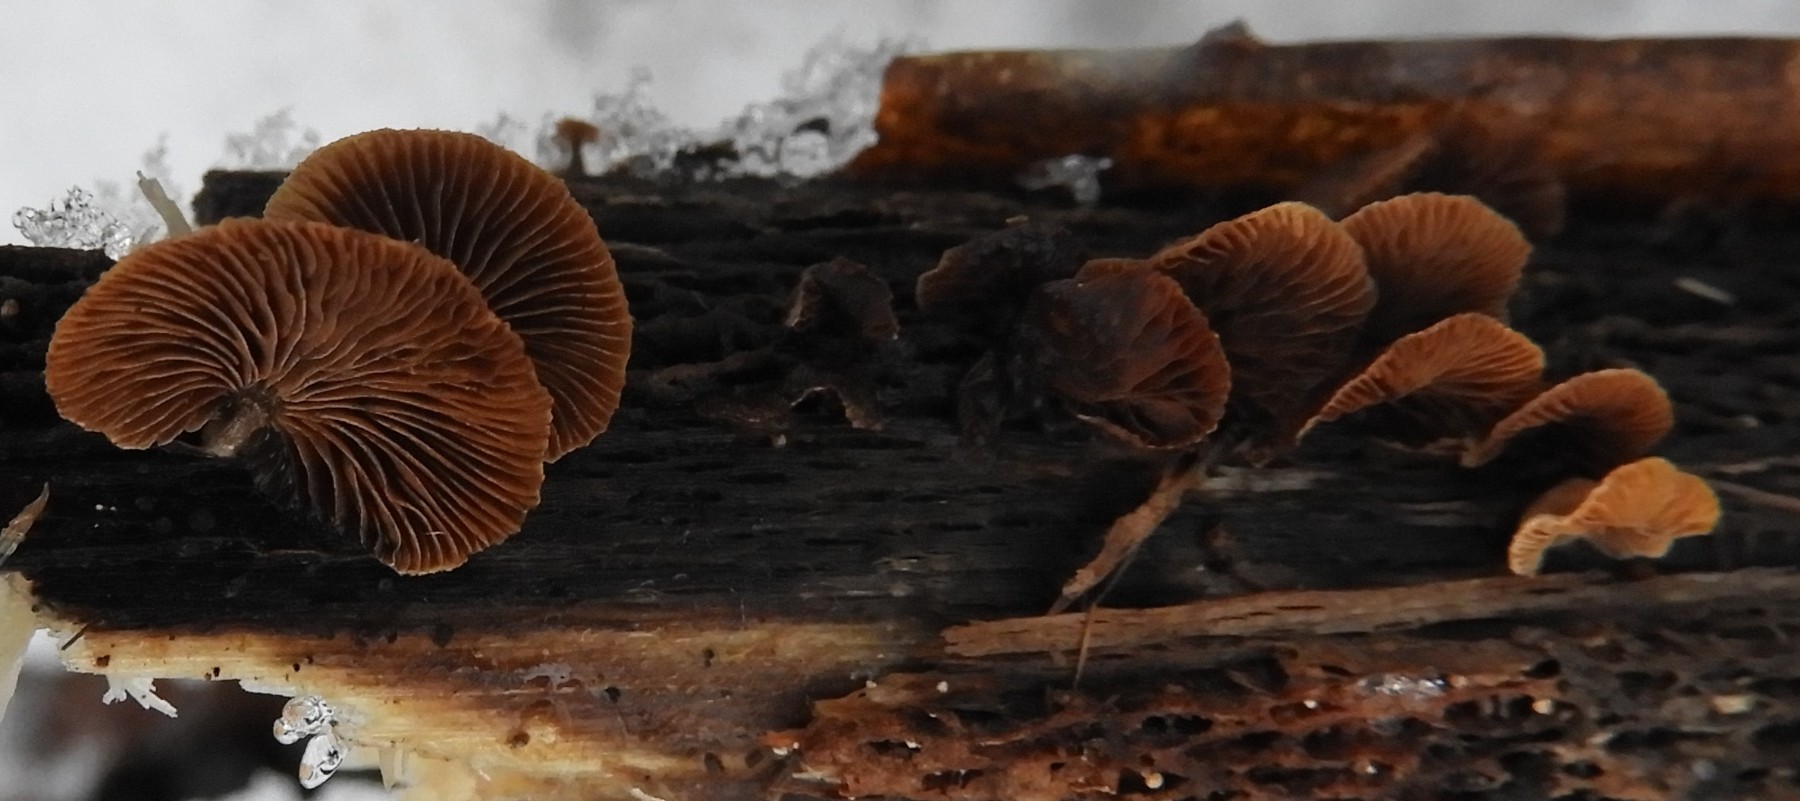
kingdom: Fungi
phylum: Basidiomycota
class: Agaricomycetes
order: Agaricales
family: Strophariaceae
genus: Deconica
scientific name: Deconica horizontalis
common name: ved-stråhat
